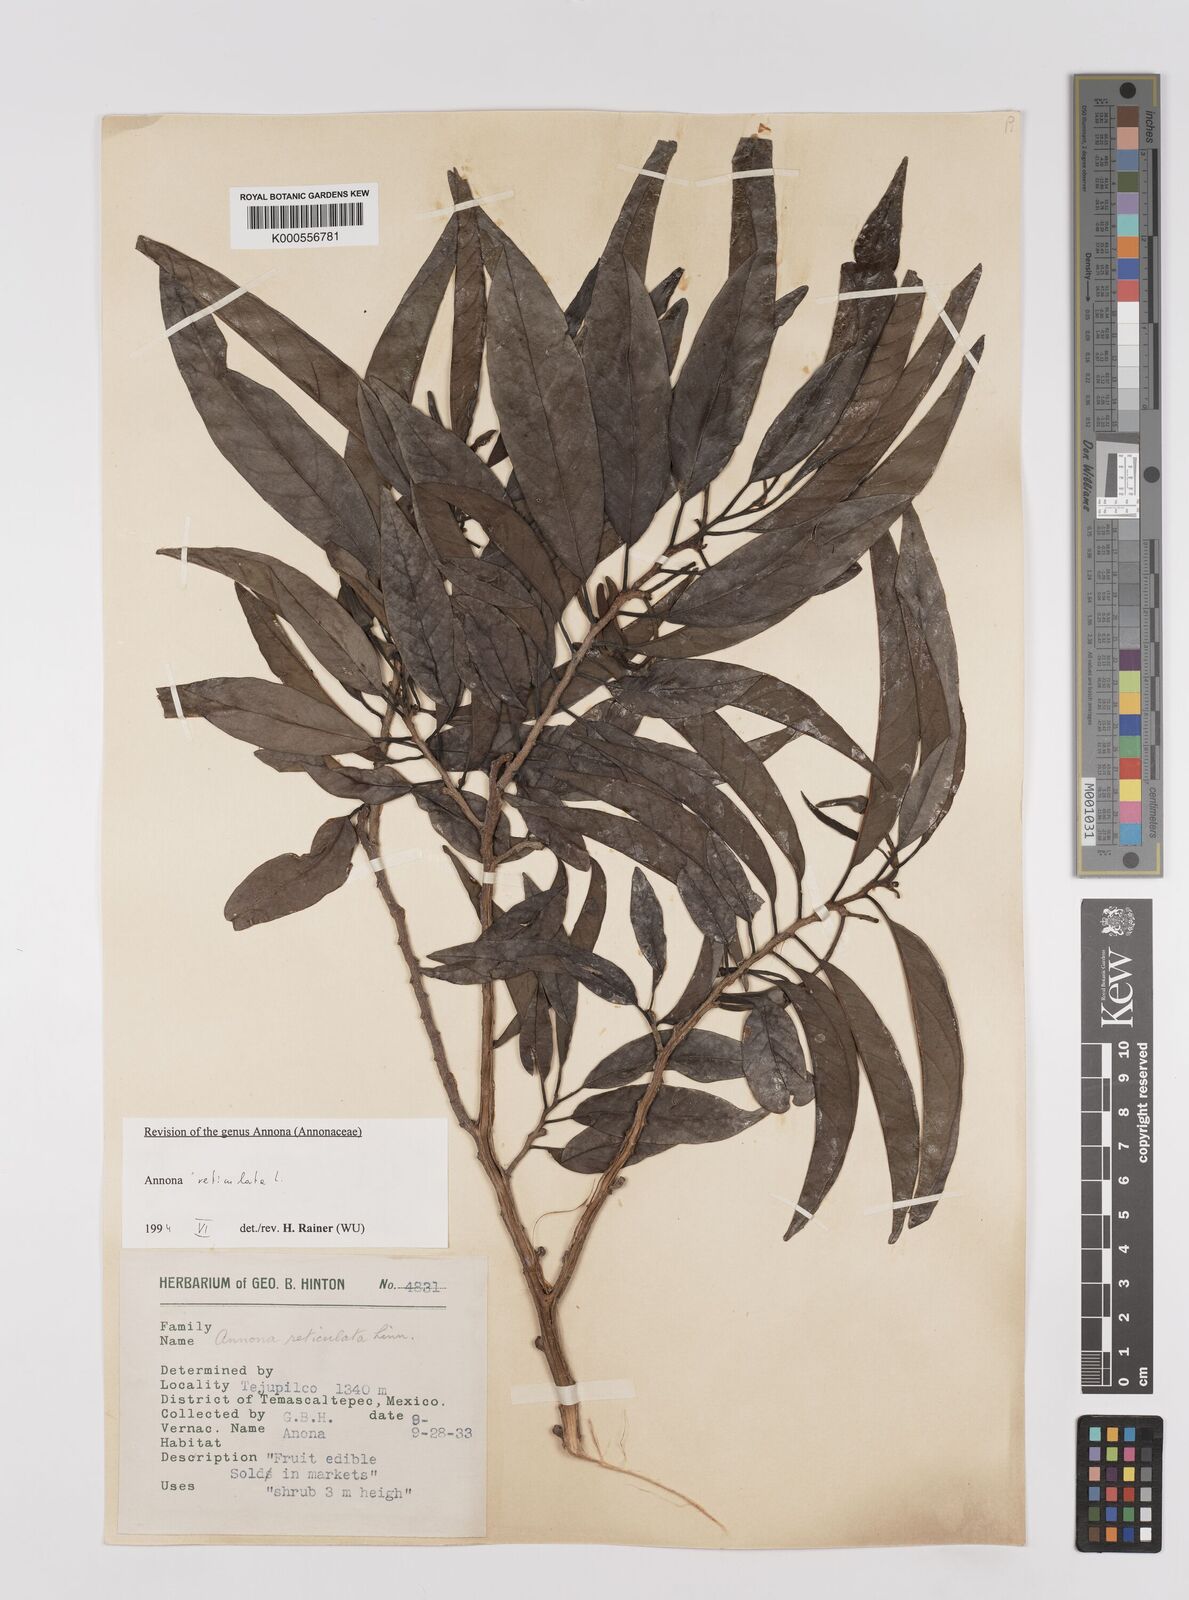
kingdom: Plantae
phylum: Tracheophyta
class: Magnoliopsida
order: Magnoliales
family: Annonaceae
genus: Annona
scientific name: Annona reticulata
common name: Custard apple
